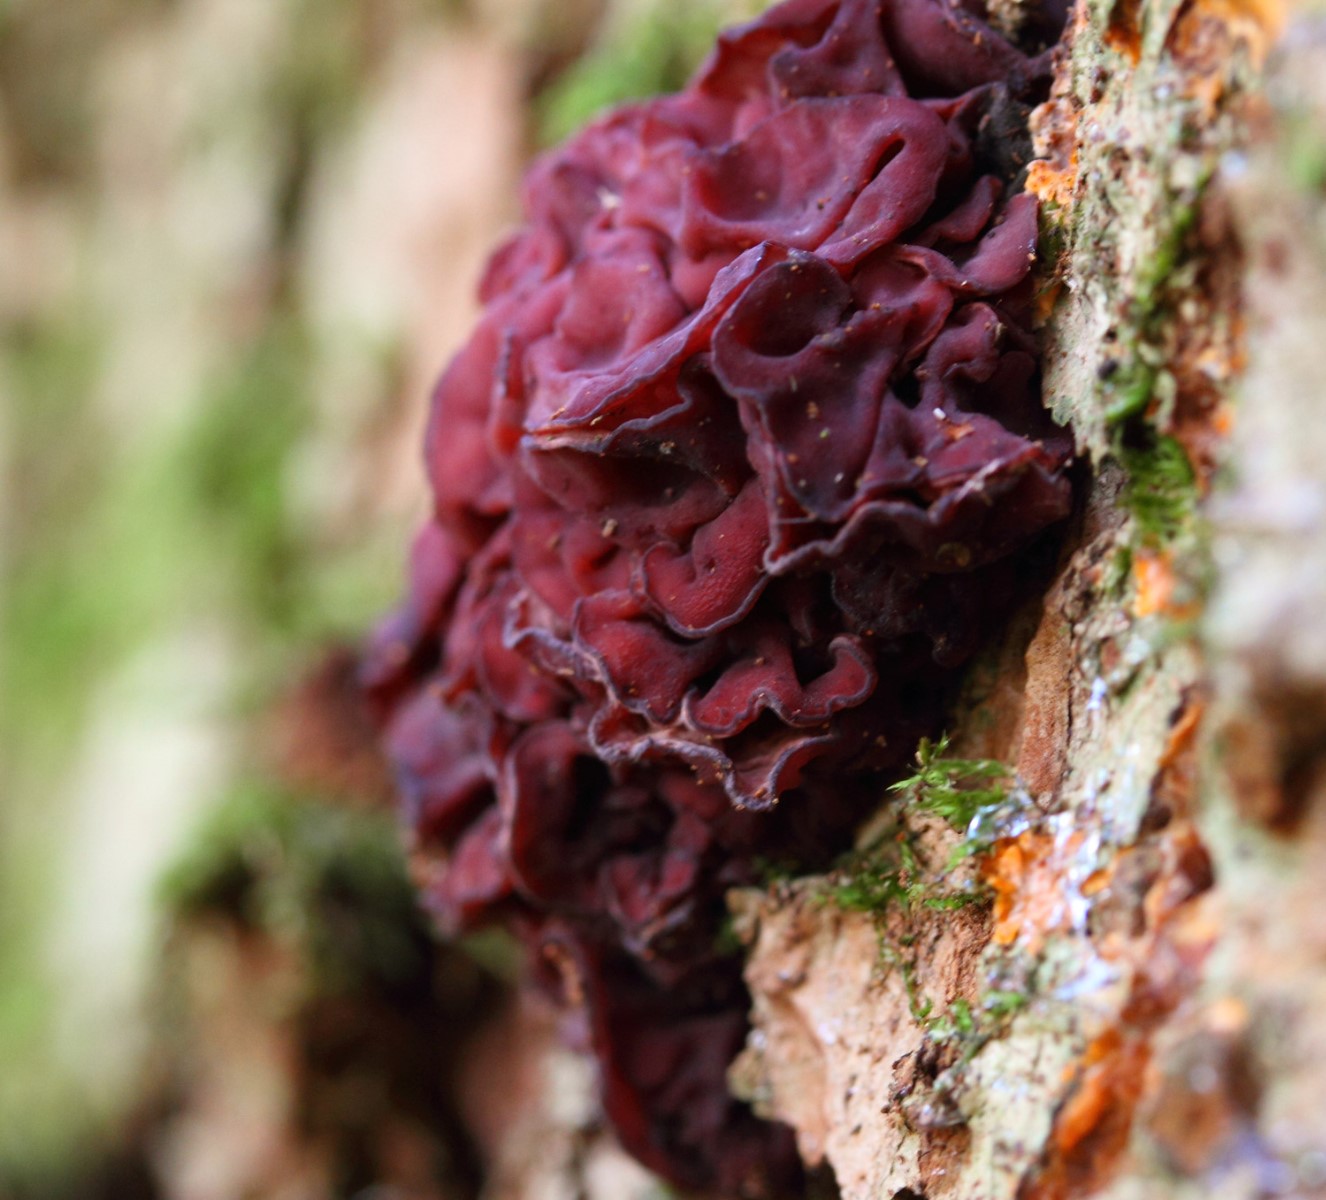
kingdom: Fungi
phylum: Ascomycota
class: Leotiomycetes
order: Helotiales
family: Gelatinodiscaceae
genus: Ascocoryne
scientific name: Ascocoryne cylichnium
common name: stor sejskive
